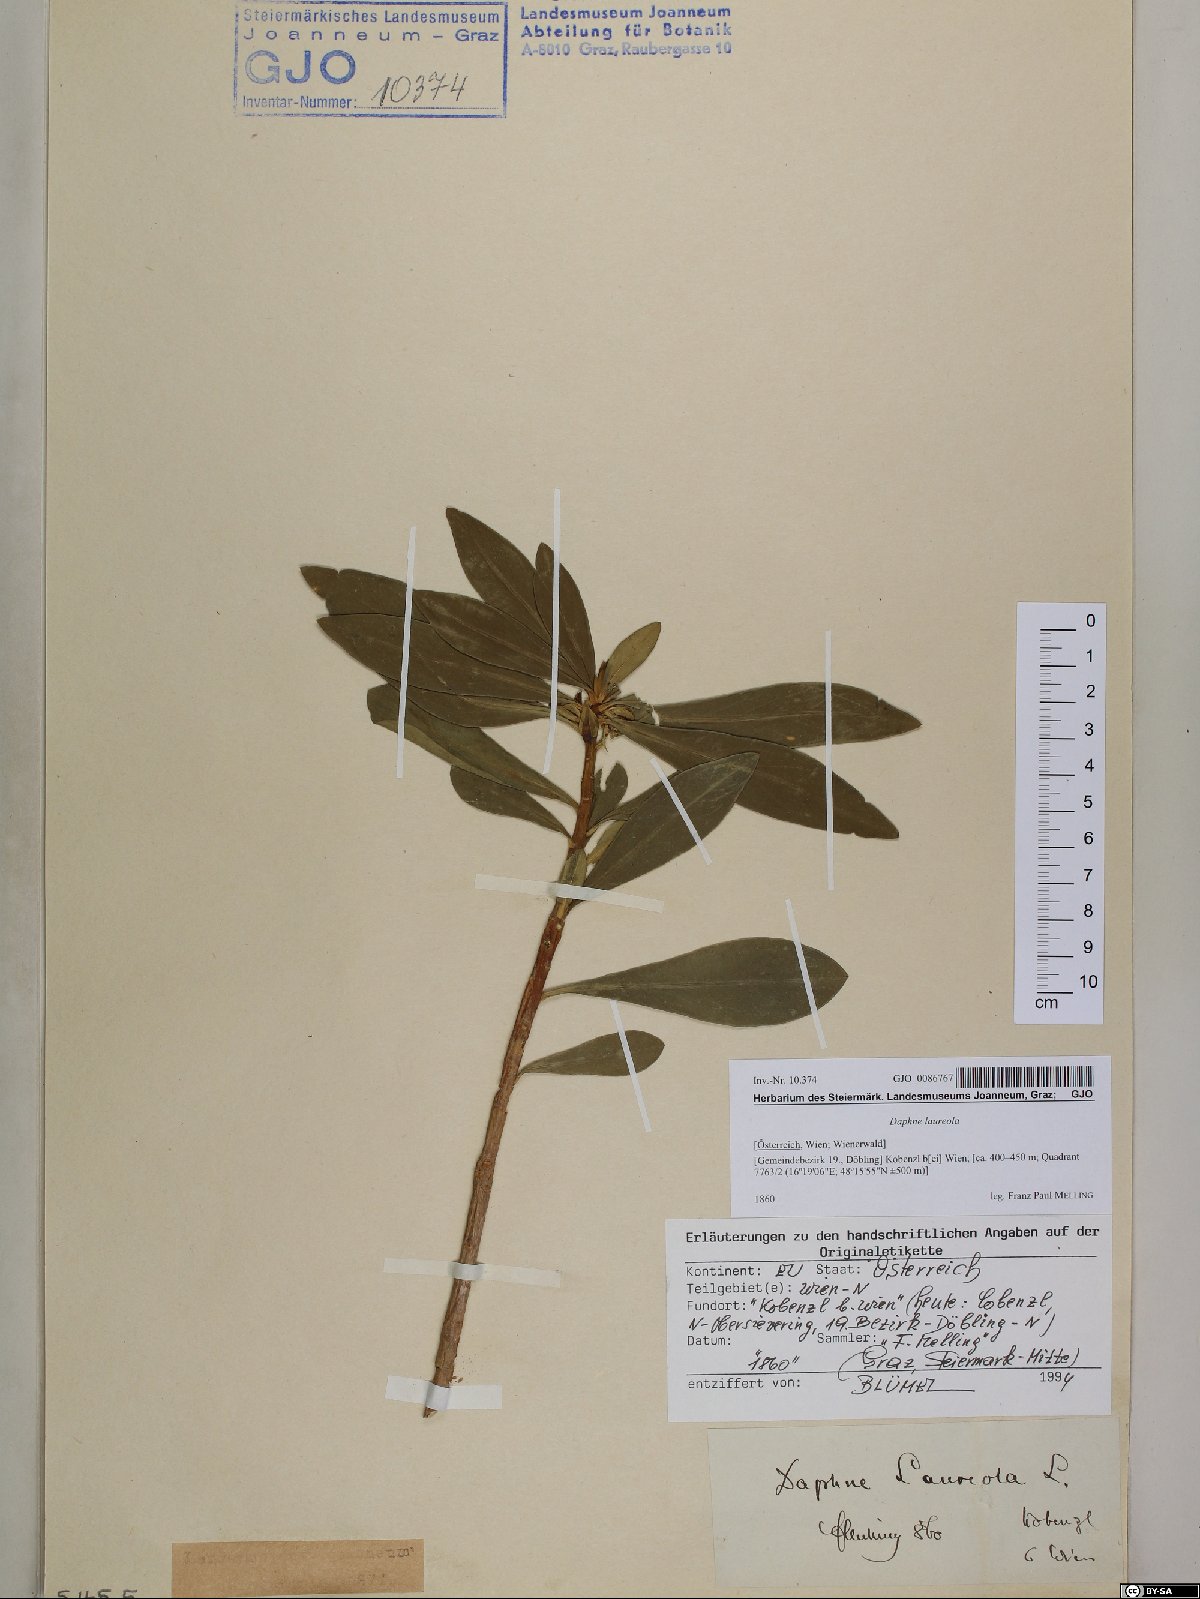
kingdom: Plantae
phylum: Tracheophyta
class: Magnoliopsida
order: Malvales
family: Thymelaeaceae
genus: Daphne
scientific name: Daphne laureola
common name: Spurge-laurel
